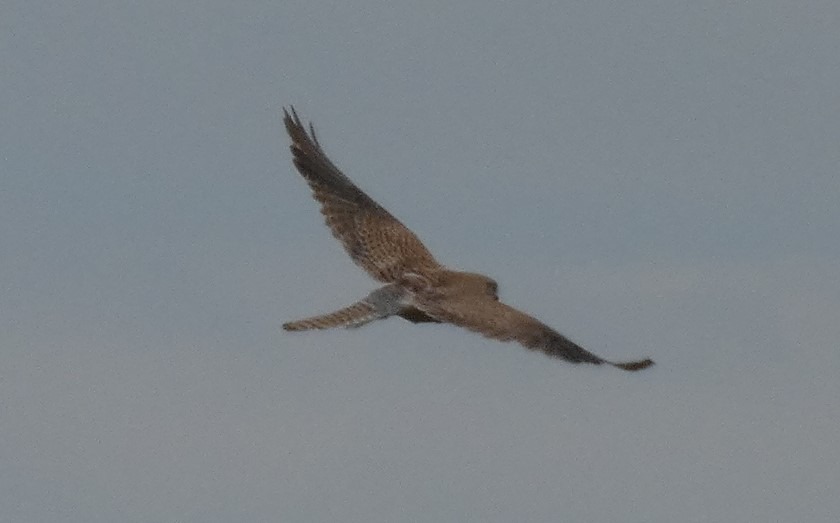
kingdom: Animalia
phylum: Chordata
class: Aves
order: Falconiformes
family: Falconidae
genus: Falco
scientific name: Falco tinnunculus
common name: Tårnfalk
